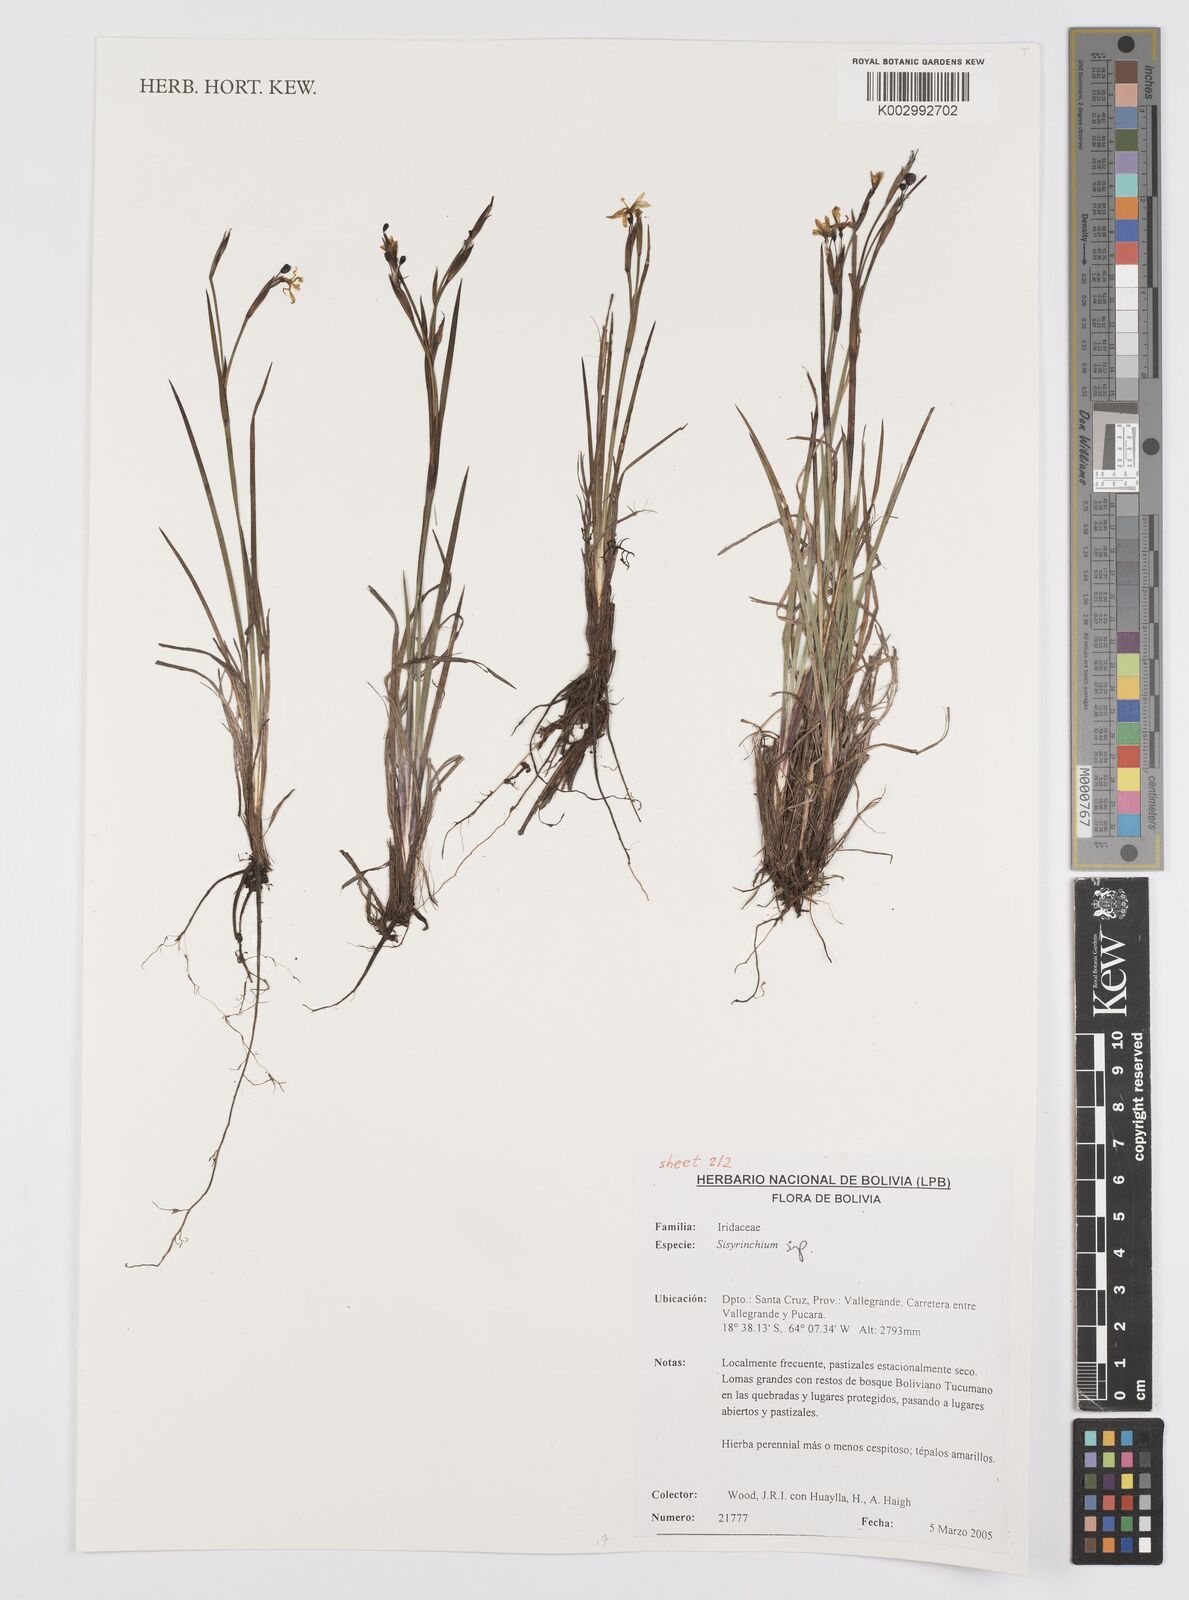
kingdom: Plantae
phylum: Tracheophyta
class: Liliopsida
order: Asparagales
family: Iridaceae
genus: Sisyrinchium
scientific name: Sisyrinchium
